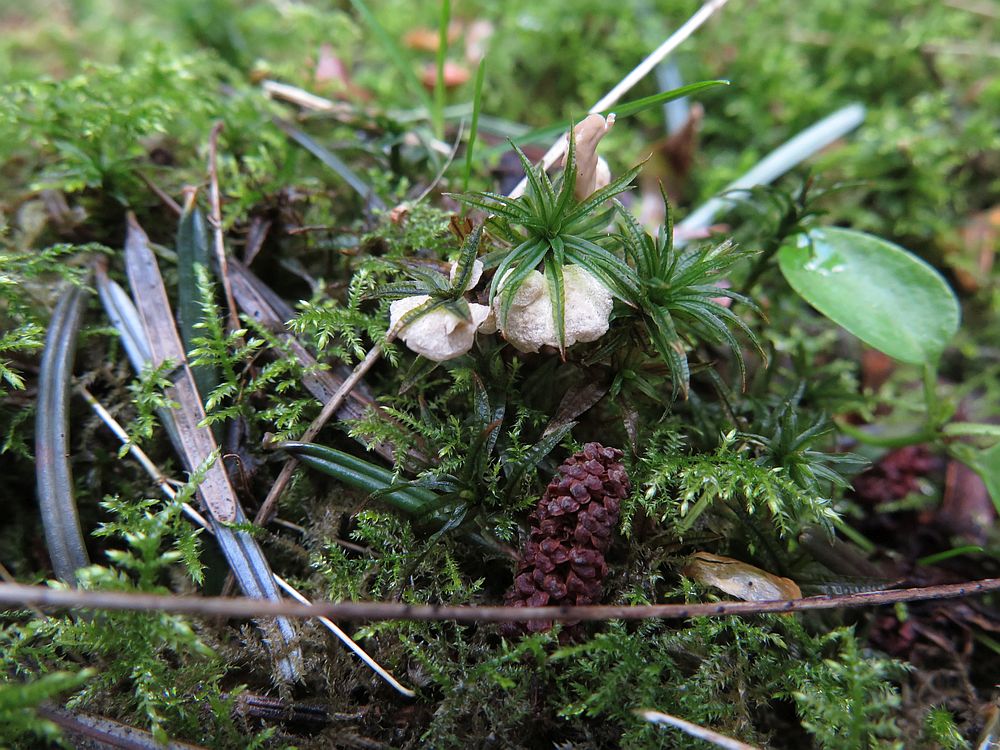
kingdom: Fungi
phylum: Basidiomycota
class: Agaricomycetes
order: Agaricales
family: Hygrophoraceae
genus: Arrhenia
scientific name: Arrhenia retiruga
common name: lille fontænehat
